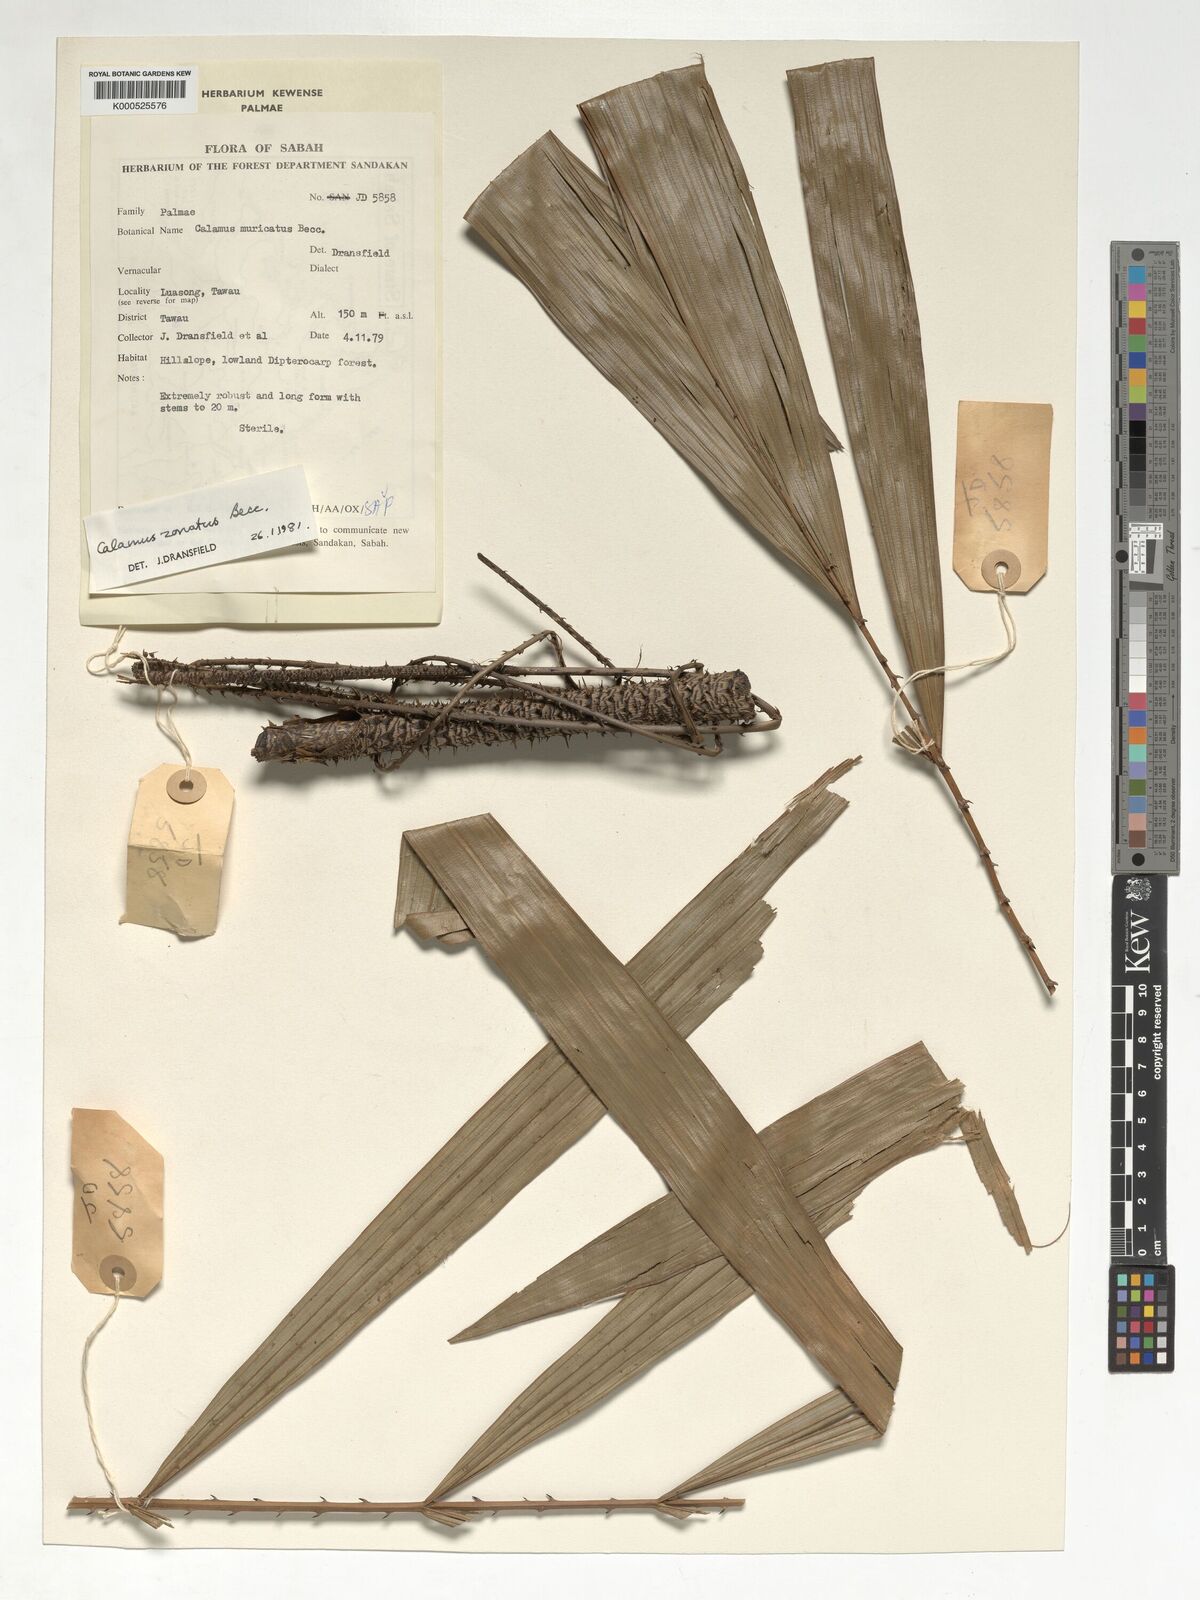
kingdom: Plantae
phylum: Tracheophyta
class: Liliopsida
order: Arecales
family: Arecaceae
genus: Calamus
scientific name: Calamus zonatus
